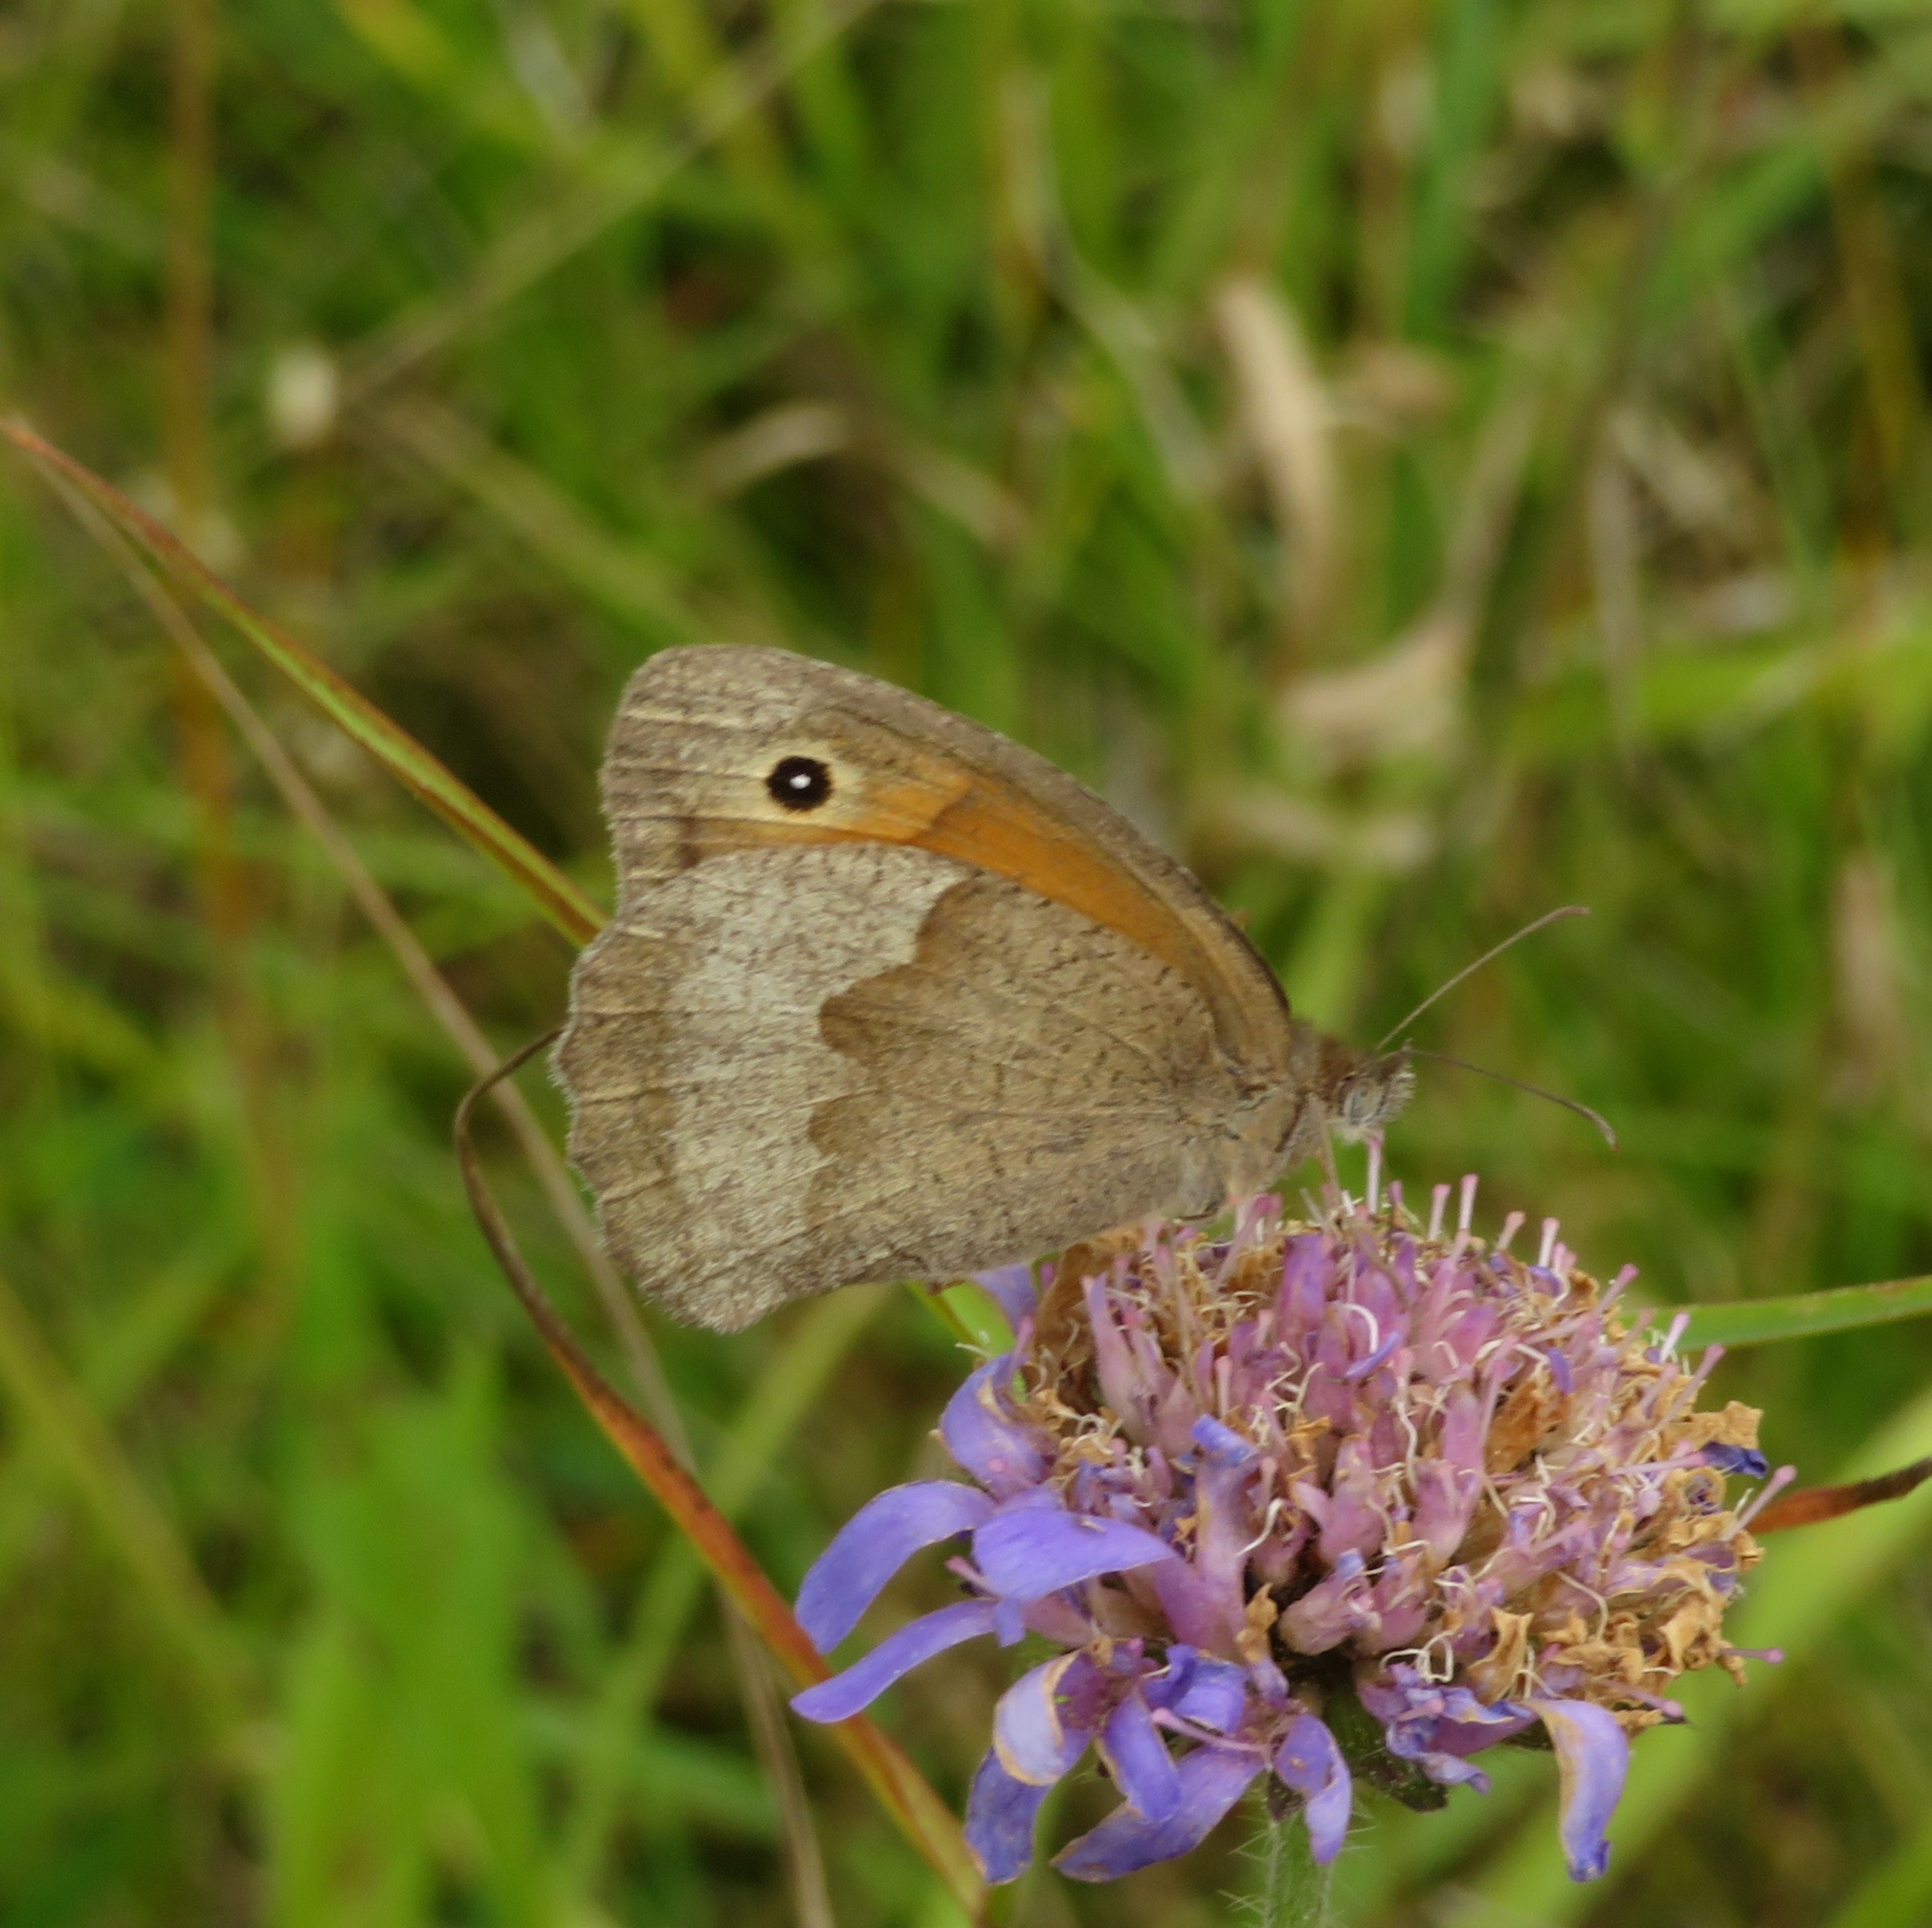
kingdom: Animalia
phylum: Arthropoda
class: Insecta
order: Lepidoptera
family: Nymphalidae
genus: Maniola
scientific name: Maniola jurtina
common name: Græsrandøje
